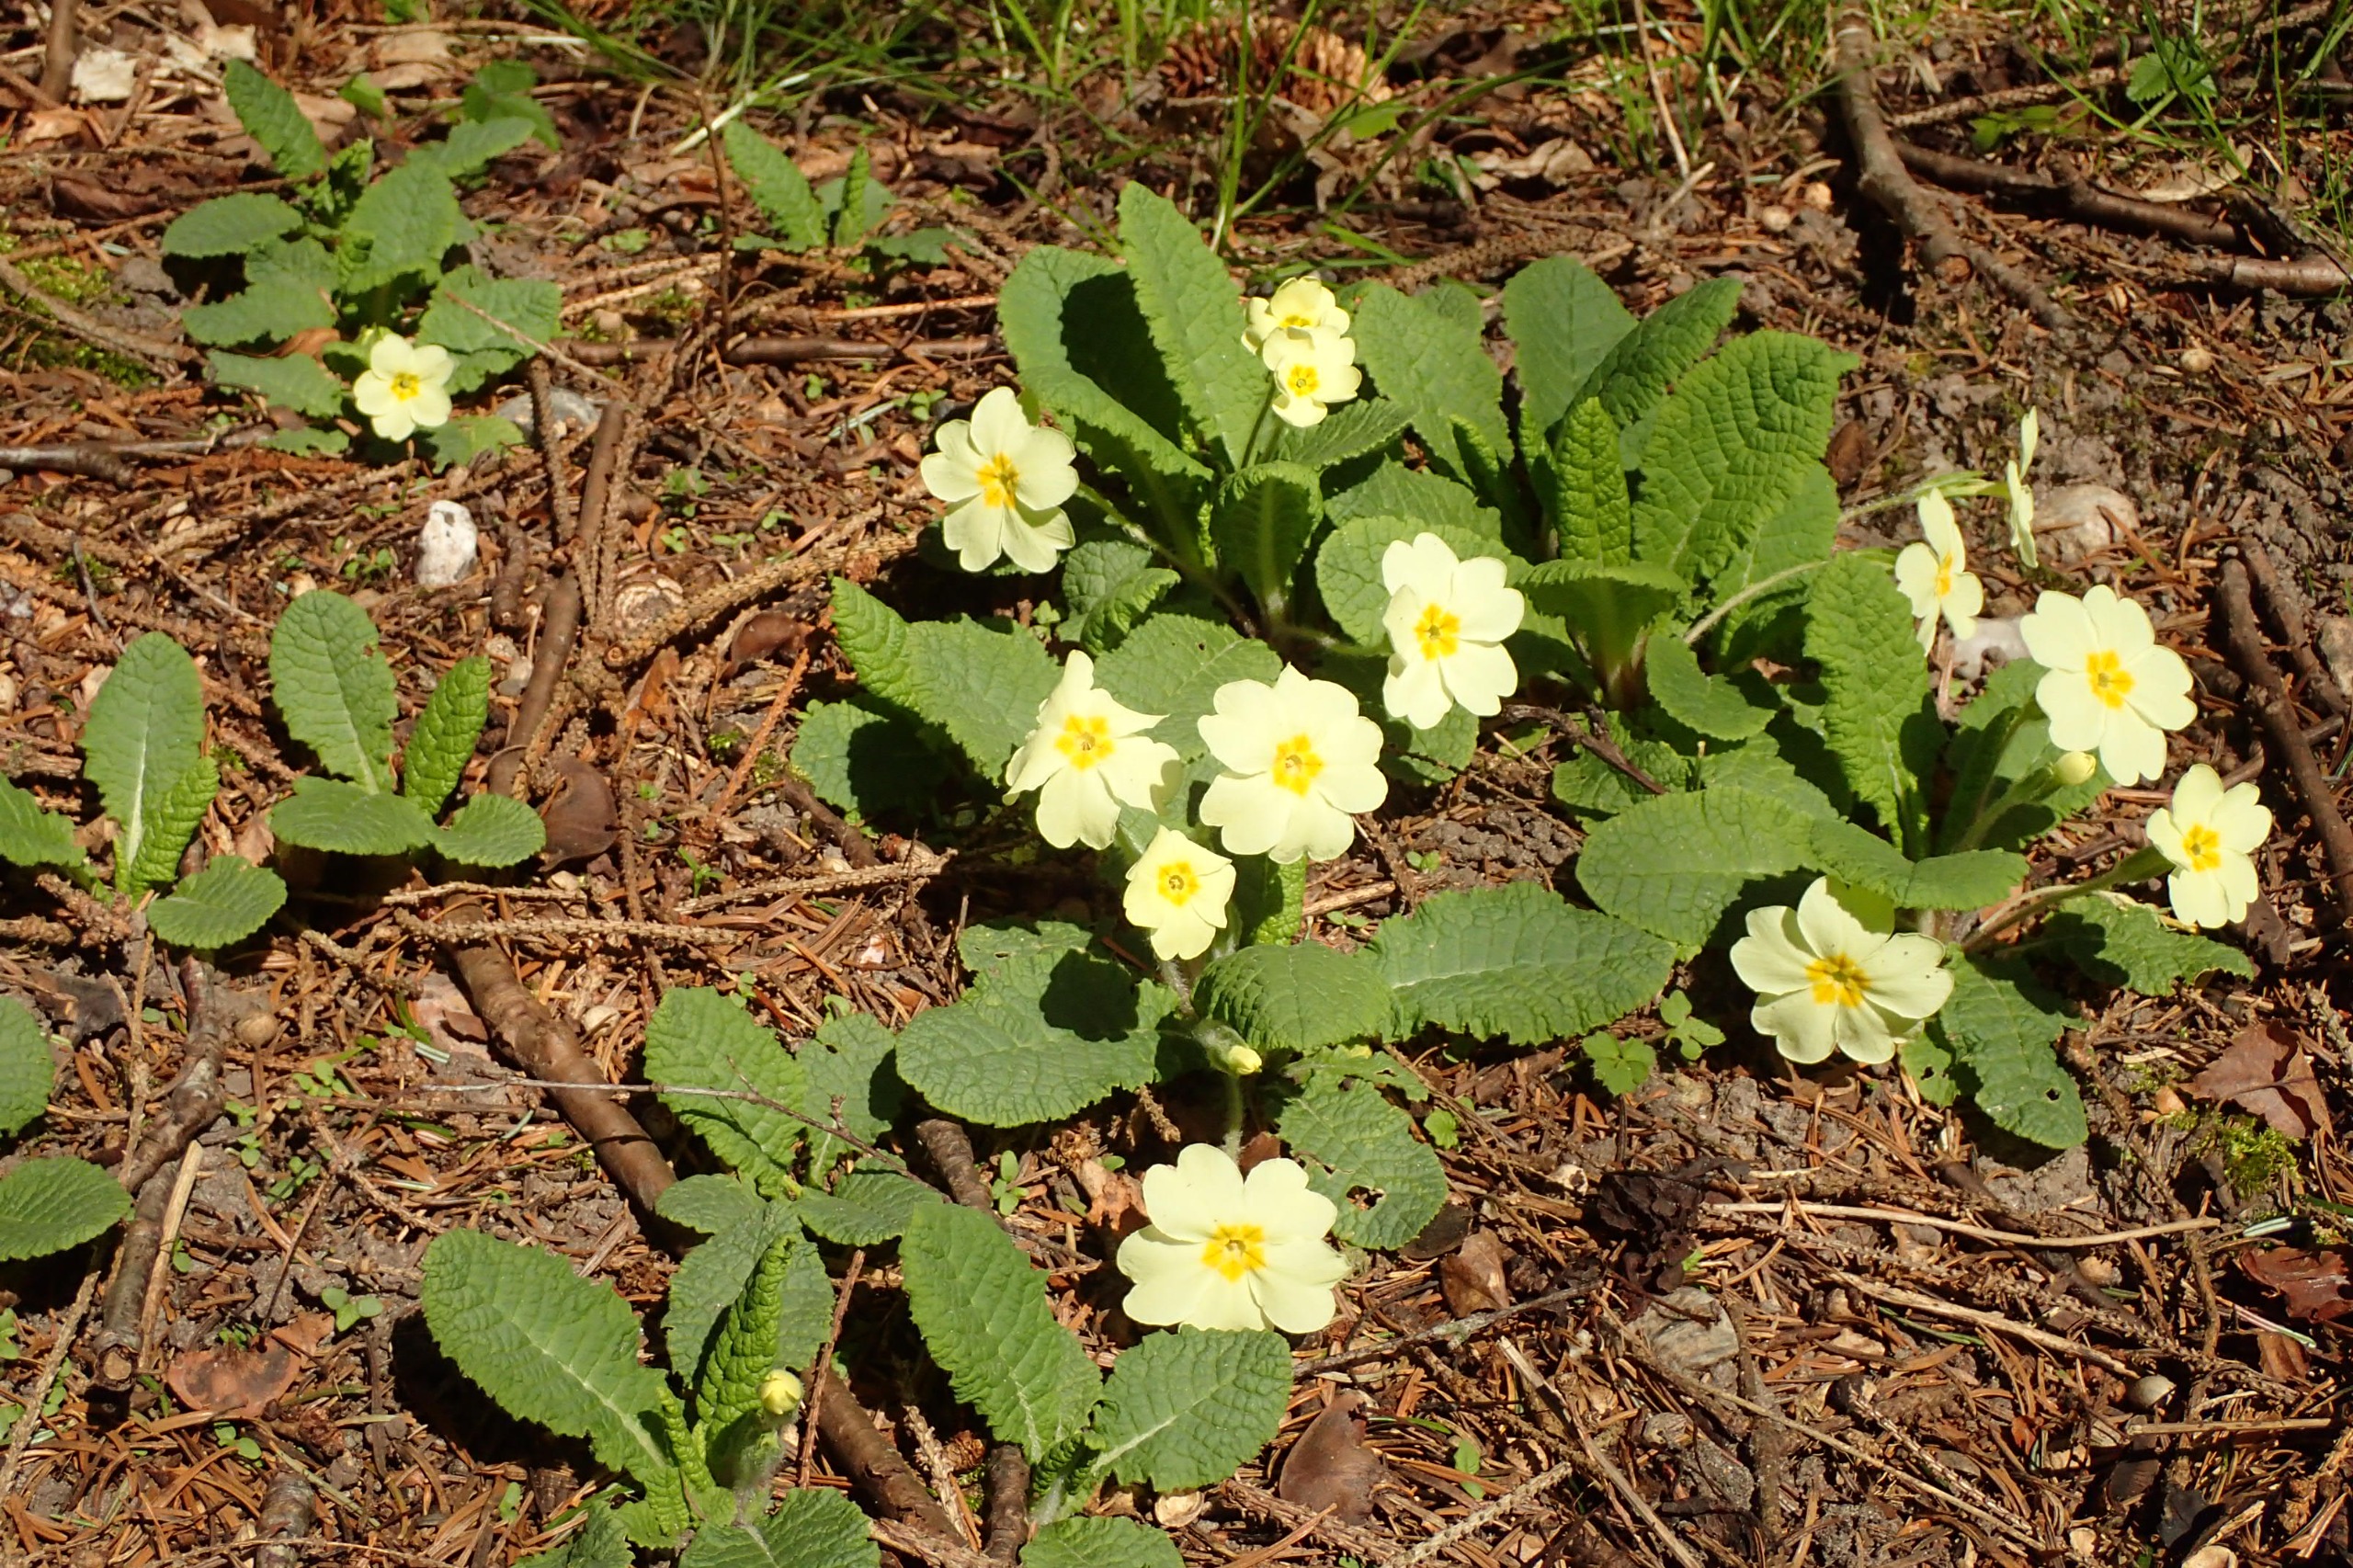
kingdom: Plantae
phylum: Tracheophyta
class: Magnoliopsida
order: Ericales
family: Primulaceae
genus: Primula
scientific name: Primula vulgaris
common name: Storblomstret kodriver
